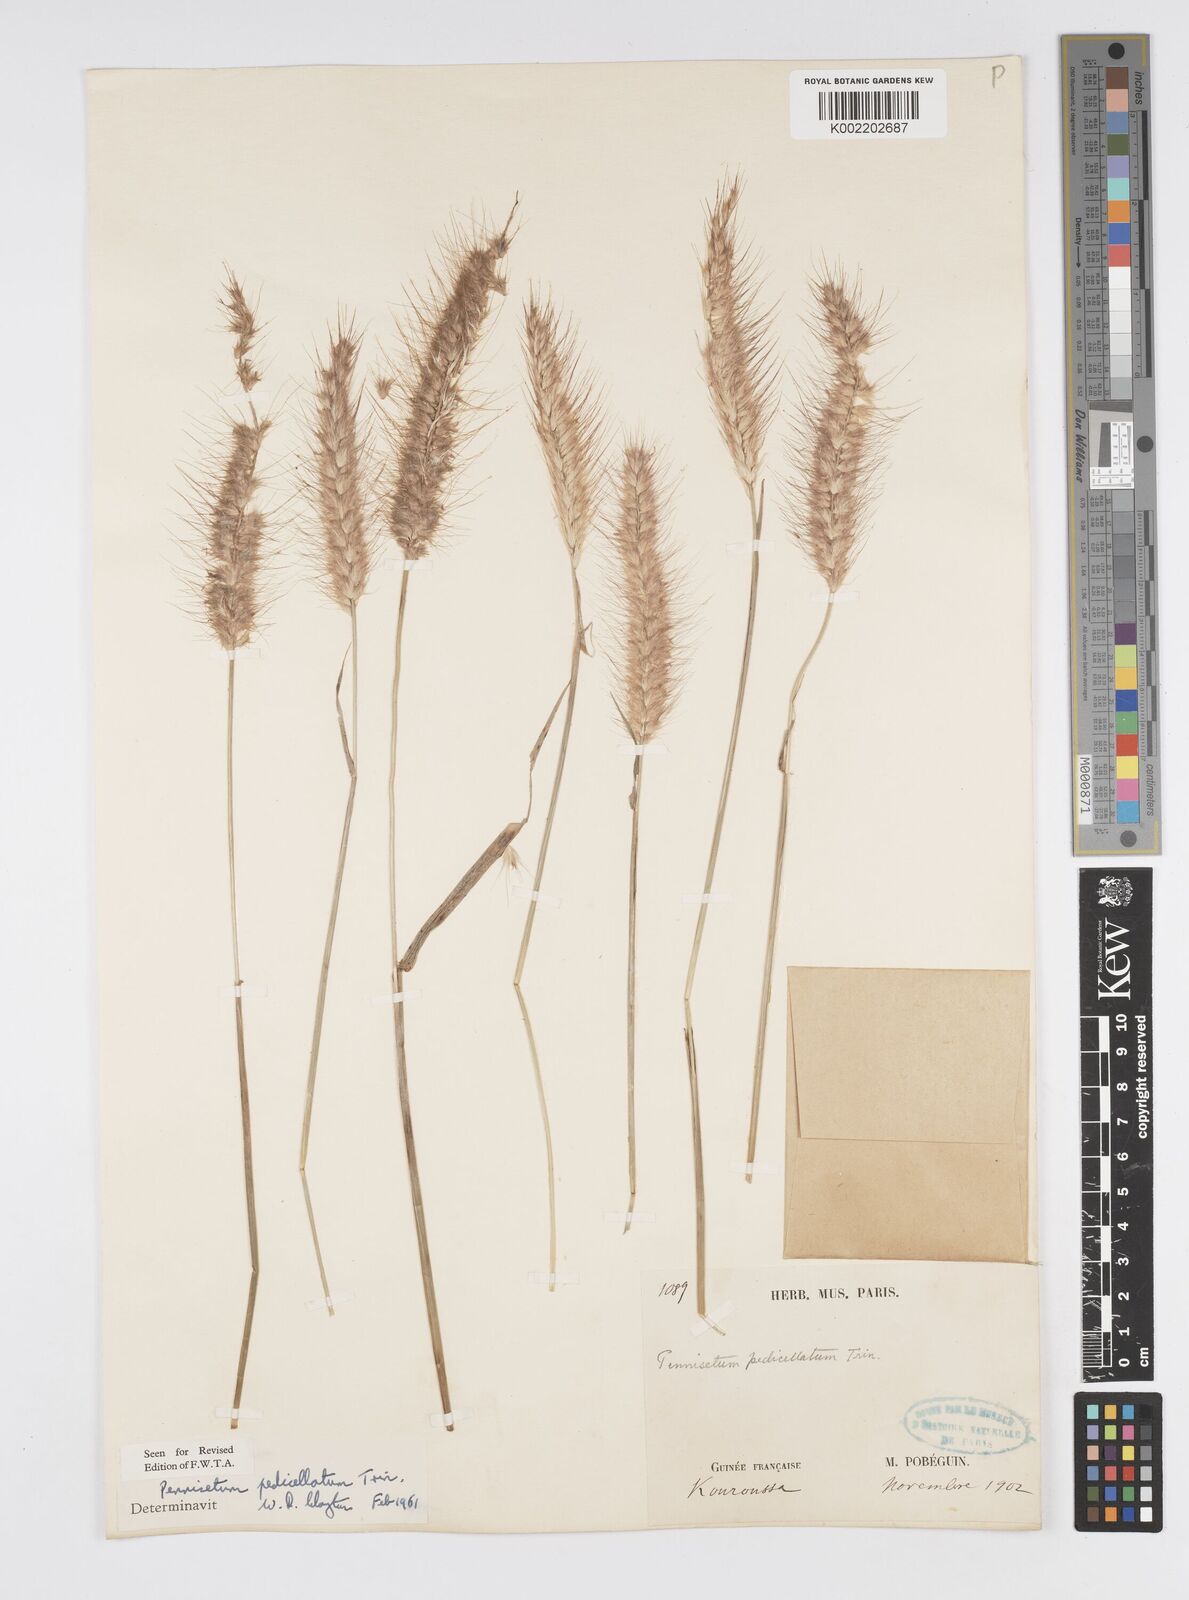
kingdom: Plantae
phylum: Tracheophyta
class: Liliopsida
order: Poales
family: Poaceae
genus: Cenchrus
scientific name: Cenchrus pedicellatus
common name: Hairy fountain grass
